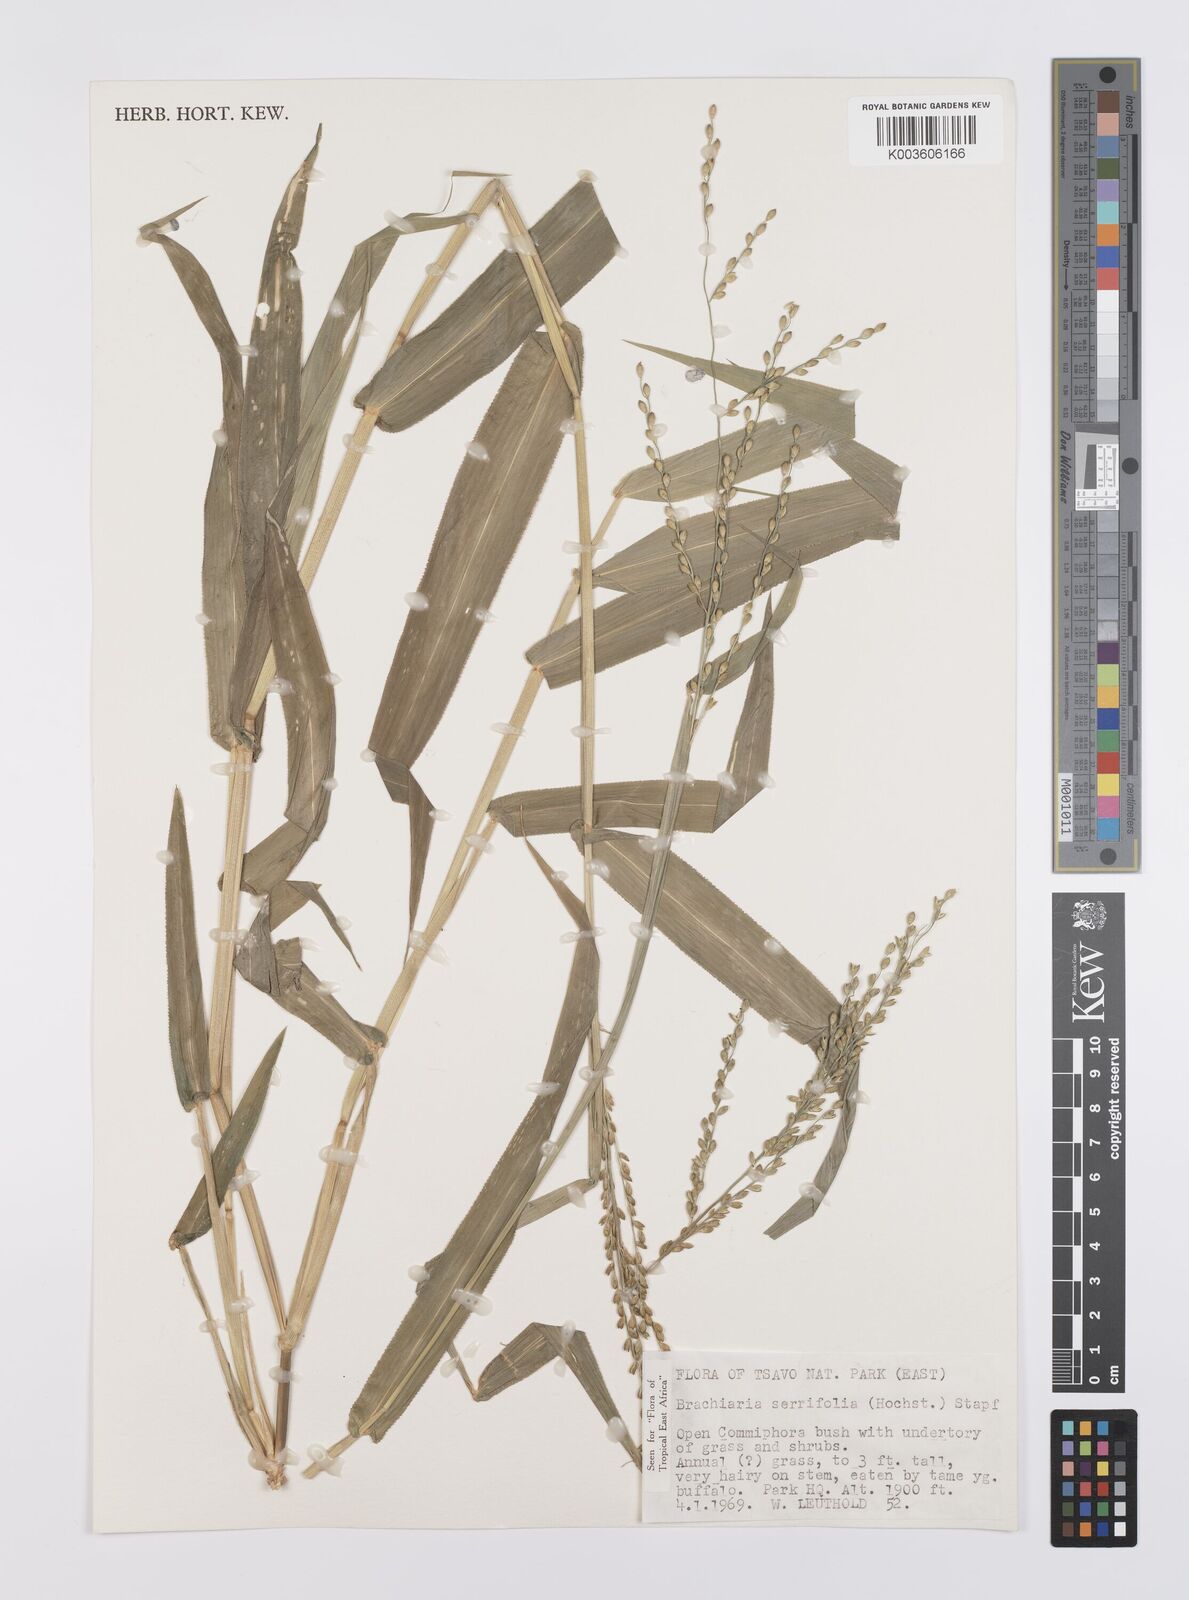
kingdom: Plantae
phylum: Tracheophyta
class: Liliopsida
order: Poales
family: Poaceae
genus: Urochloa
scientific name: Urochloa serrifolia
